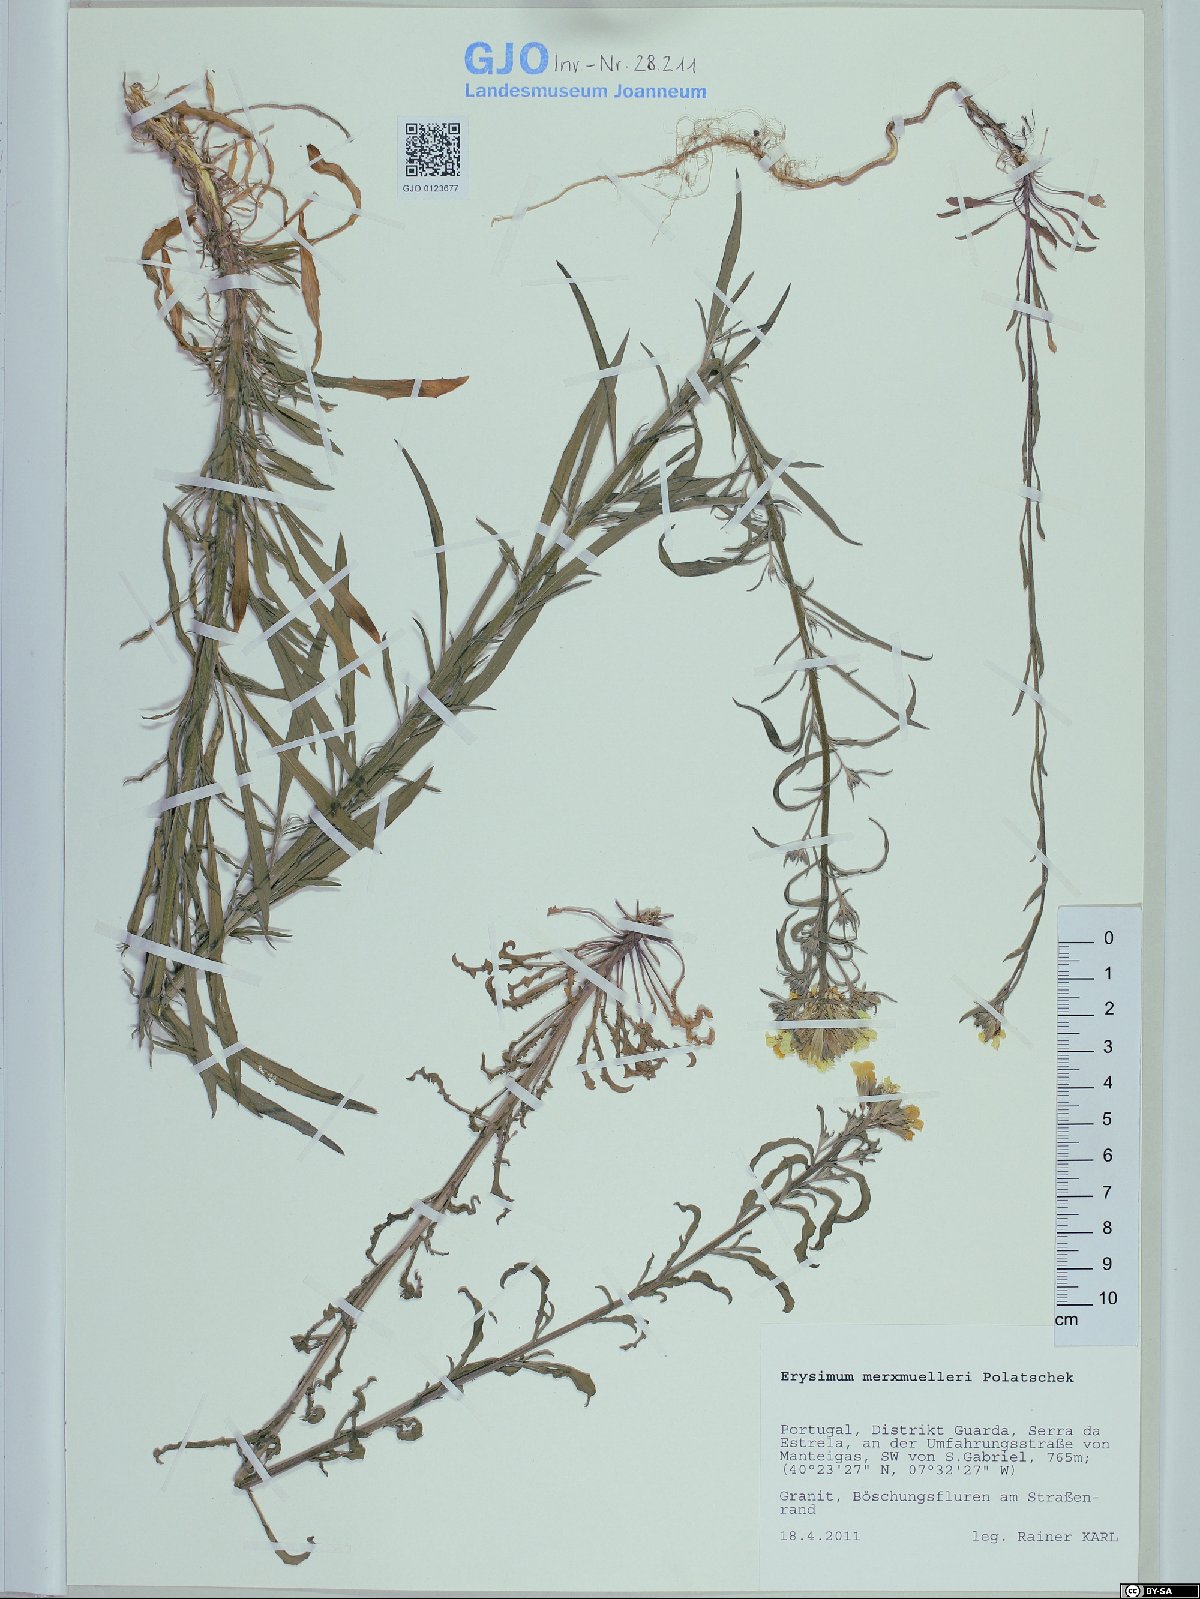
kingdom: Plantae
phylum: Tracheophyta
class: Magnoliopsida
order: Brassicales
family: Brassicaceae
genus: Erysimum
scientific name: Erysimum nevadense
